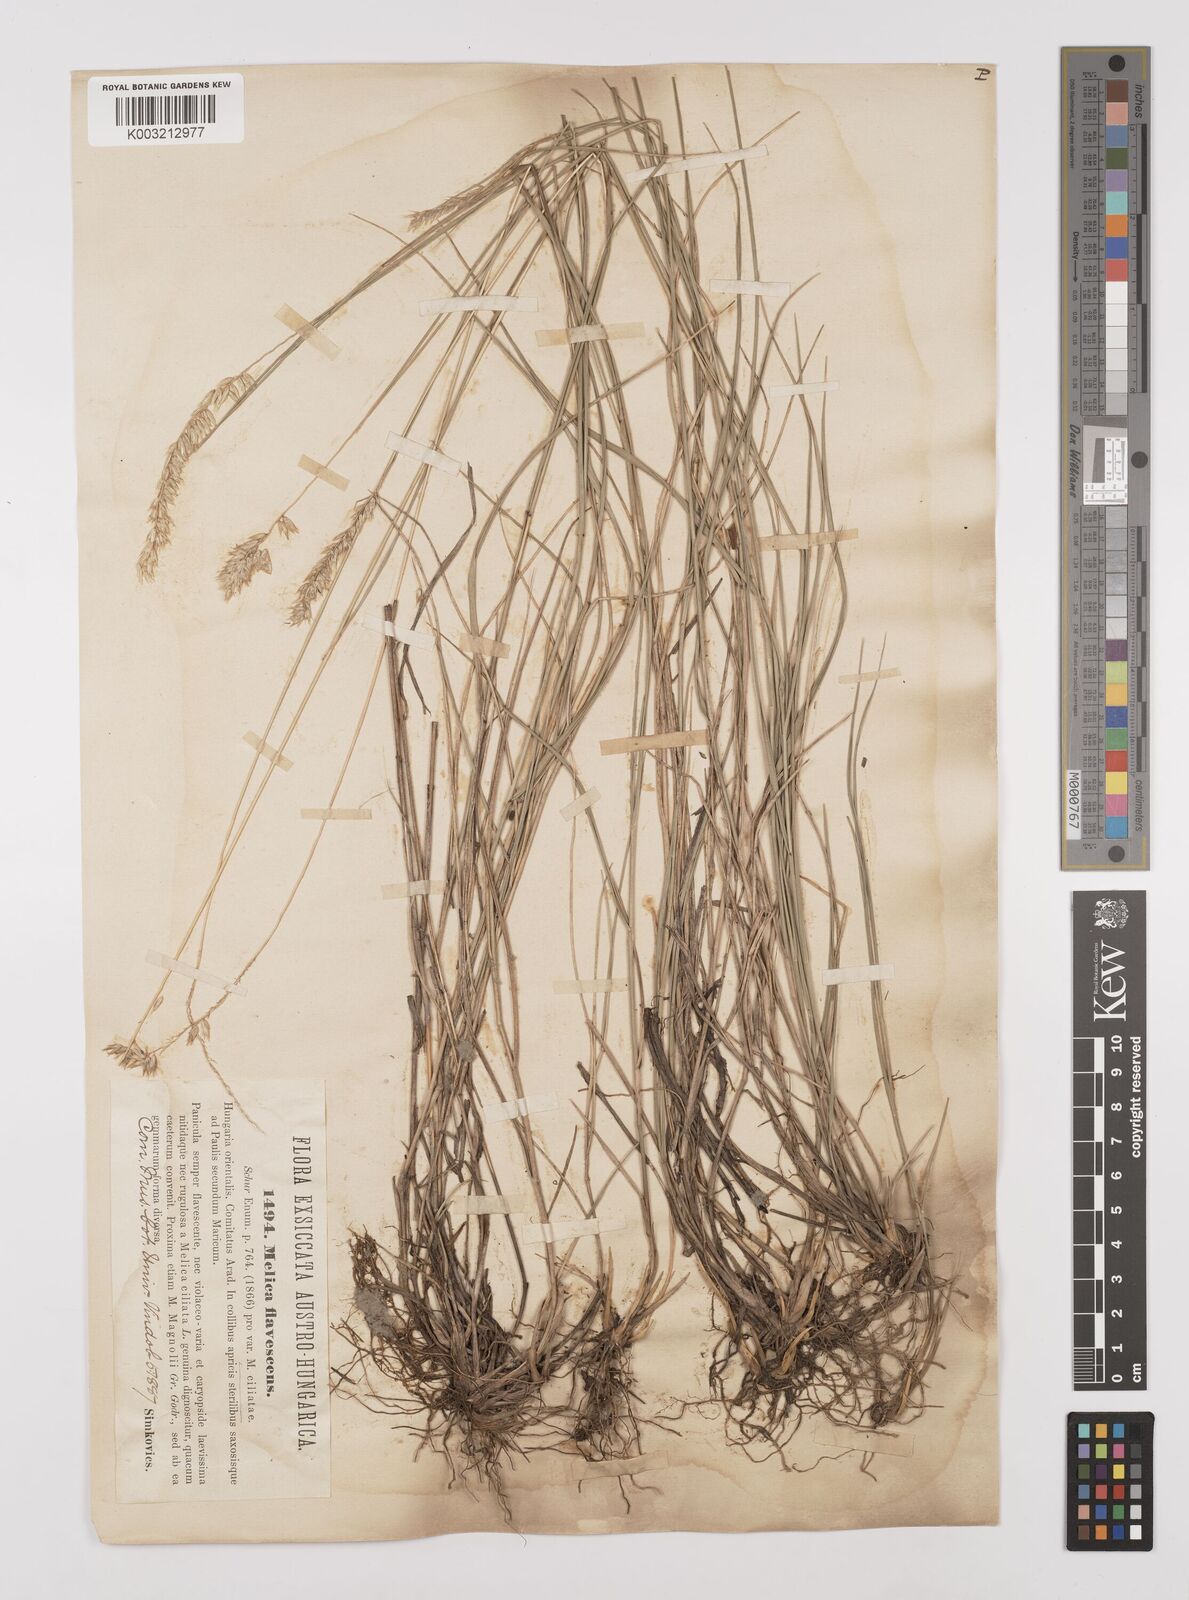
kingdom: Plantae
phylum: Tracheophyta
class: Liliopsida
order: Poales
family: Poaceae
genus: Melica
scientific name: Melica transsilvanica
